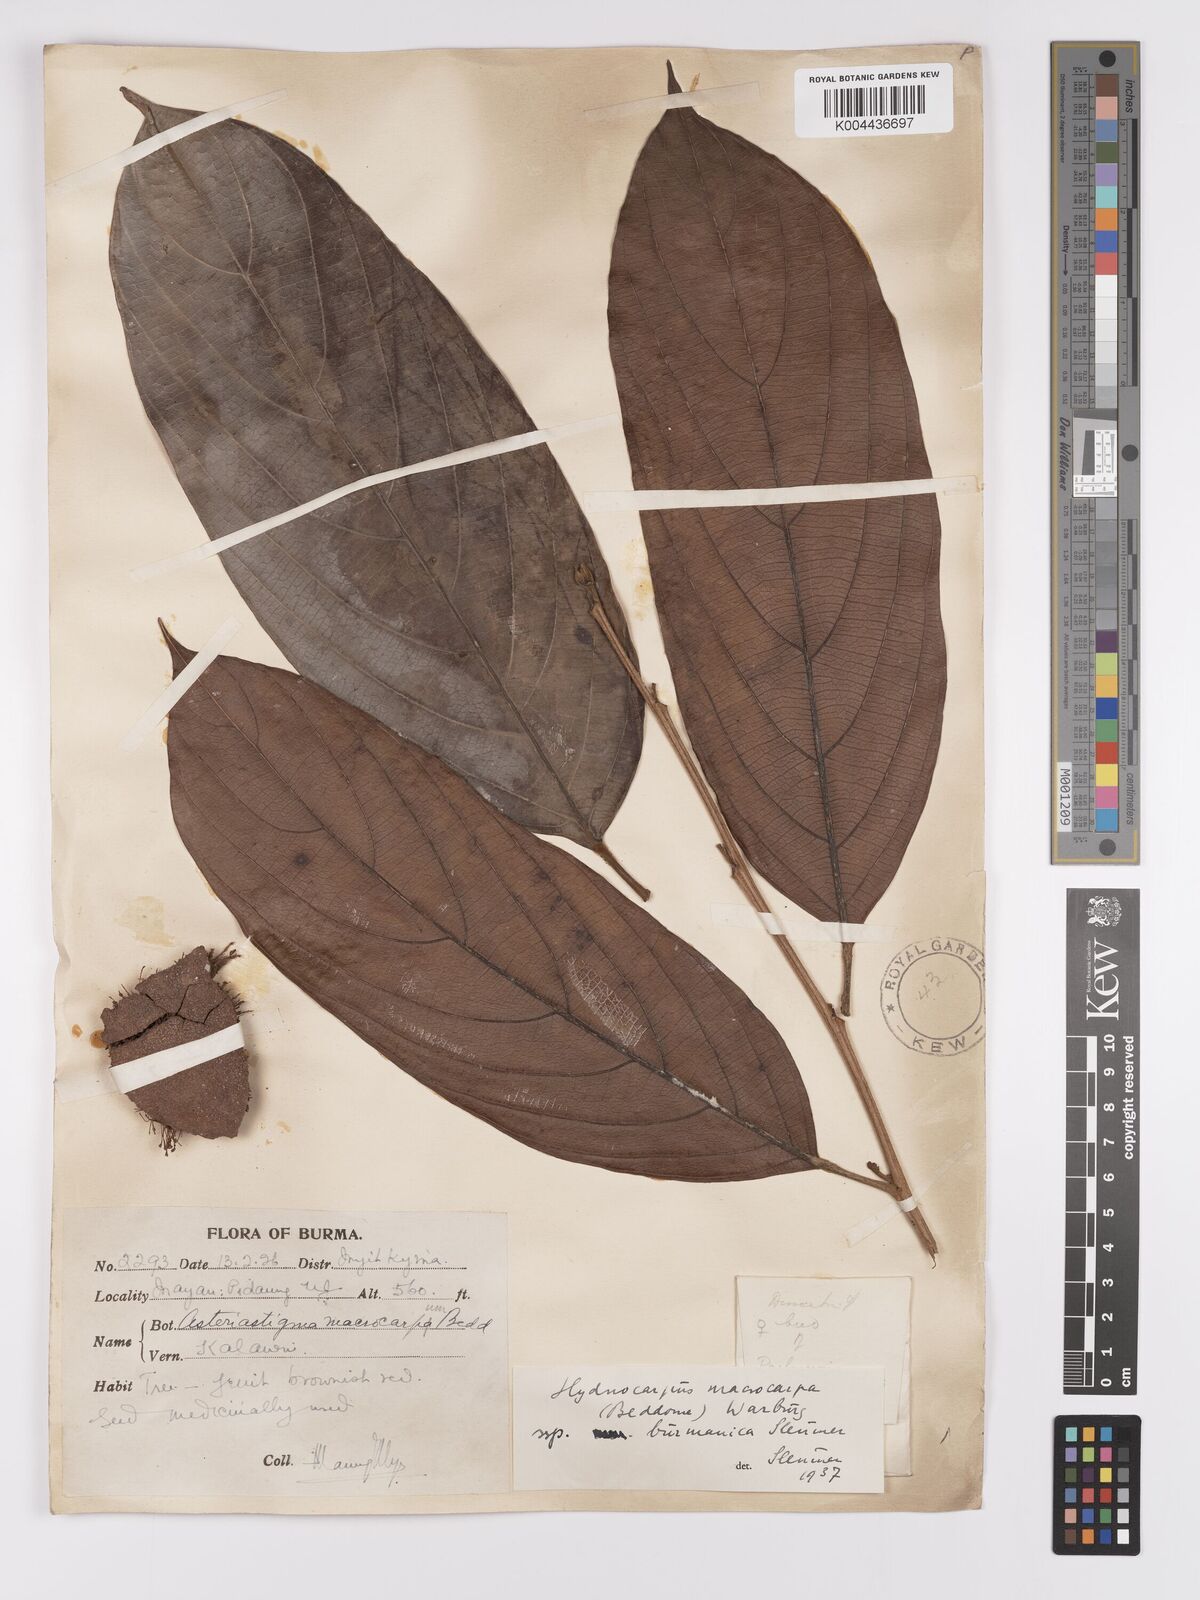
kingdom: Plantae
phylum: Tracheophyta
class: Magnoliopsida
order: Malpighiales
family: Achariaceae
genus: Hydnocarpus
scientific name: Hydnocarpus macrocarpus
